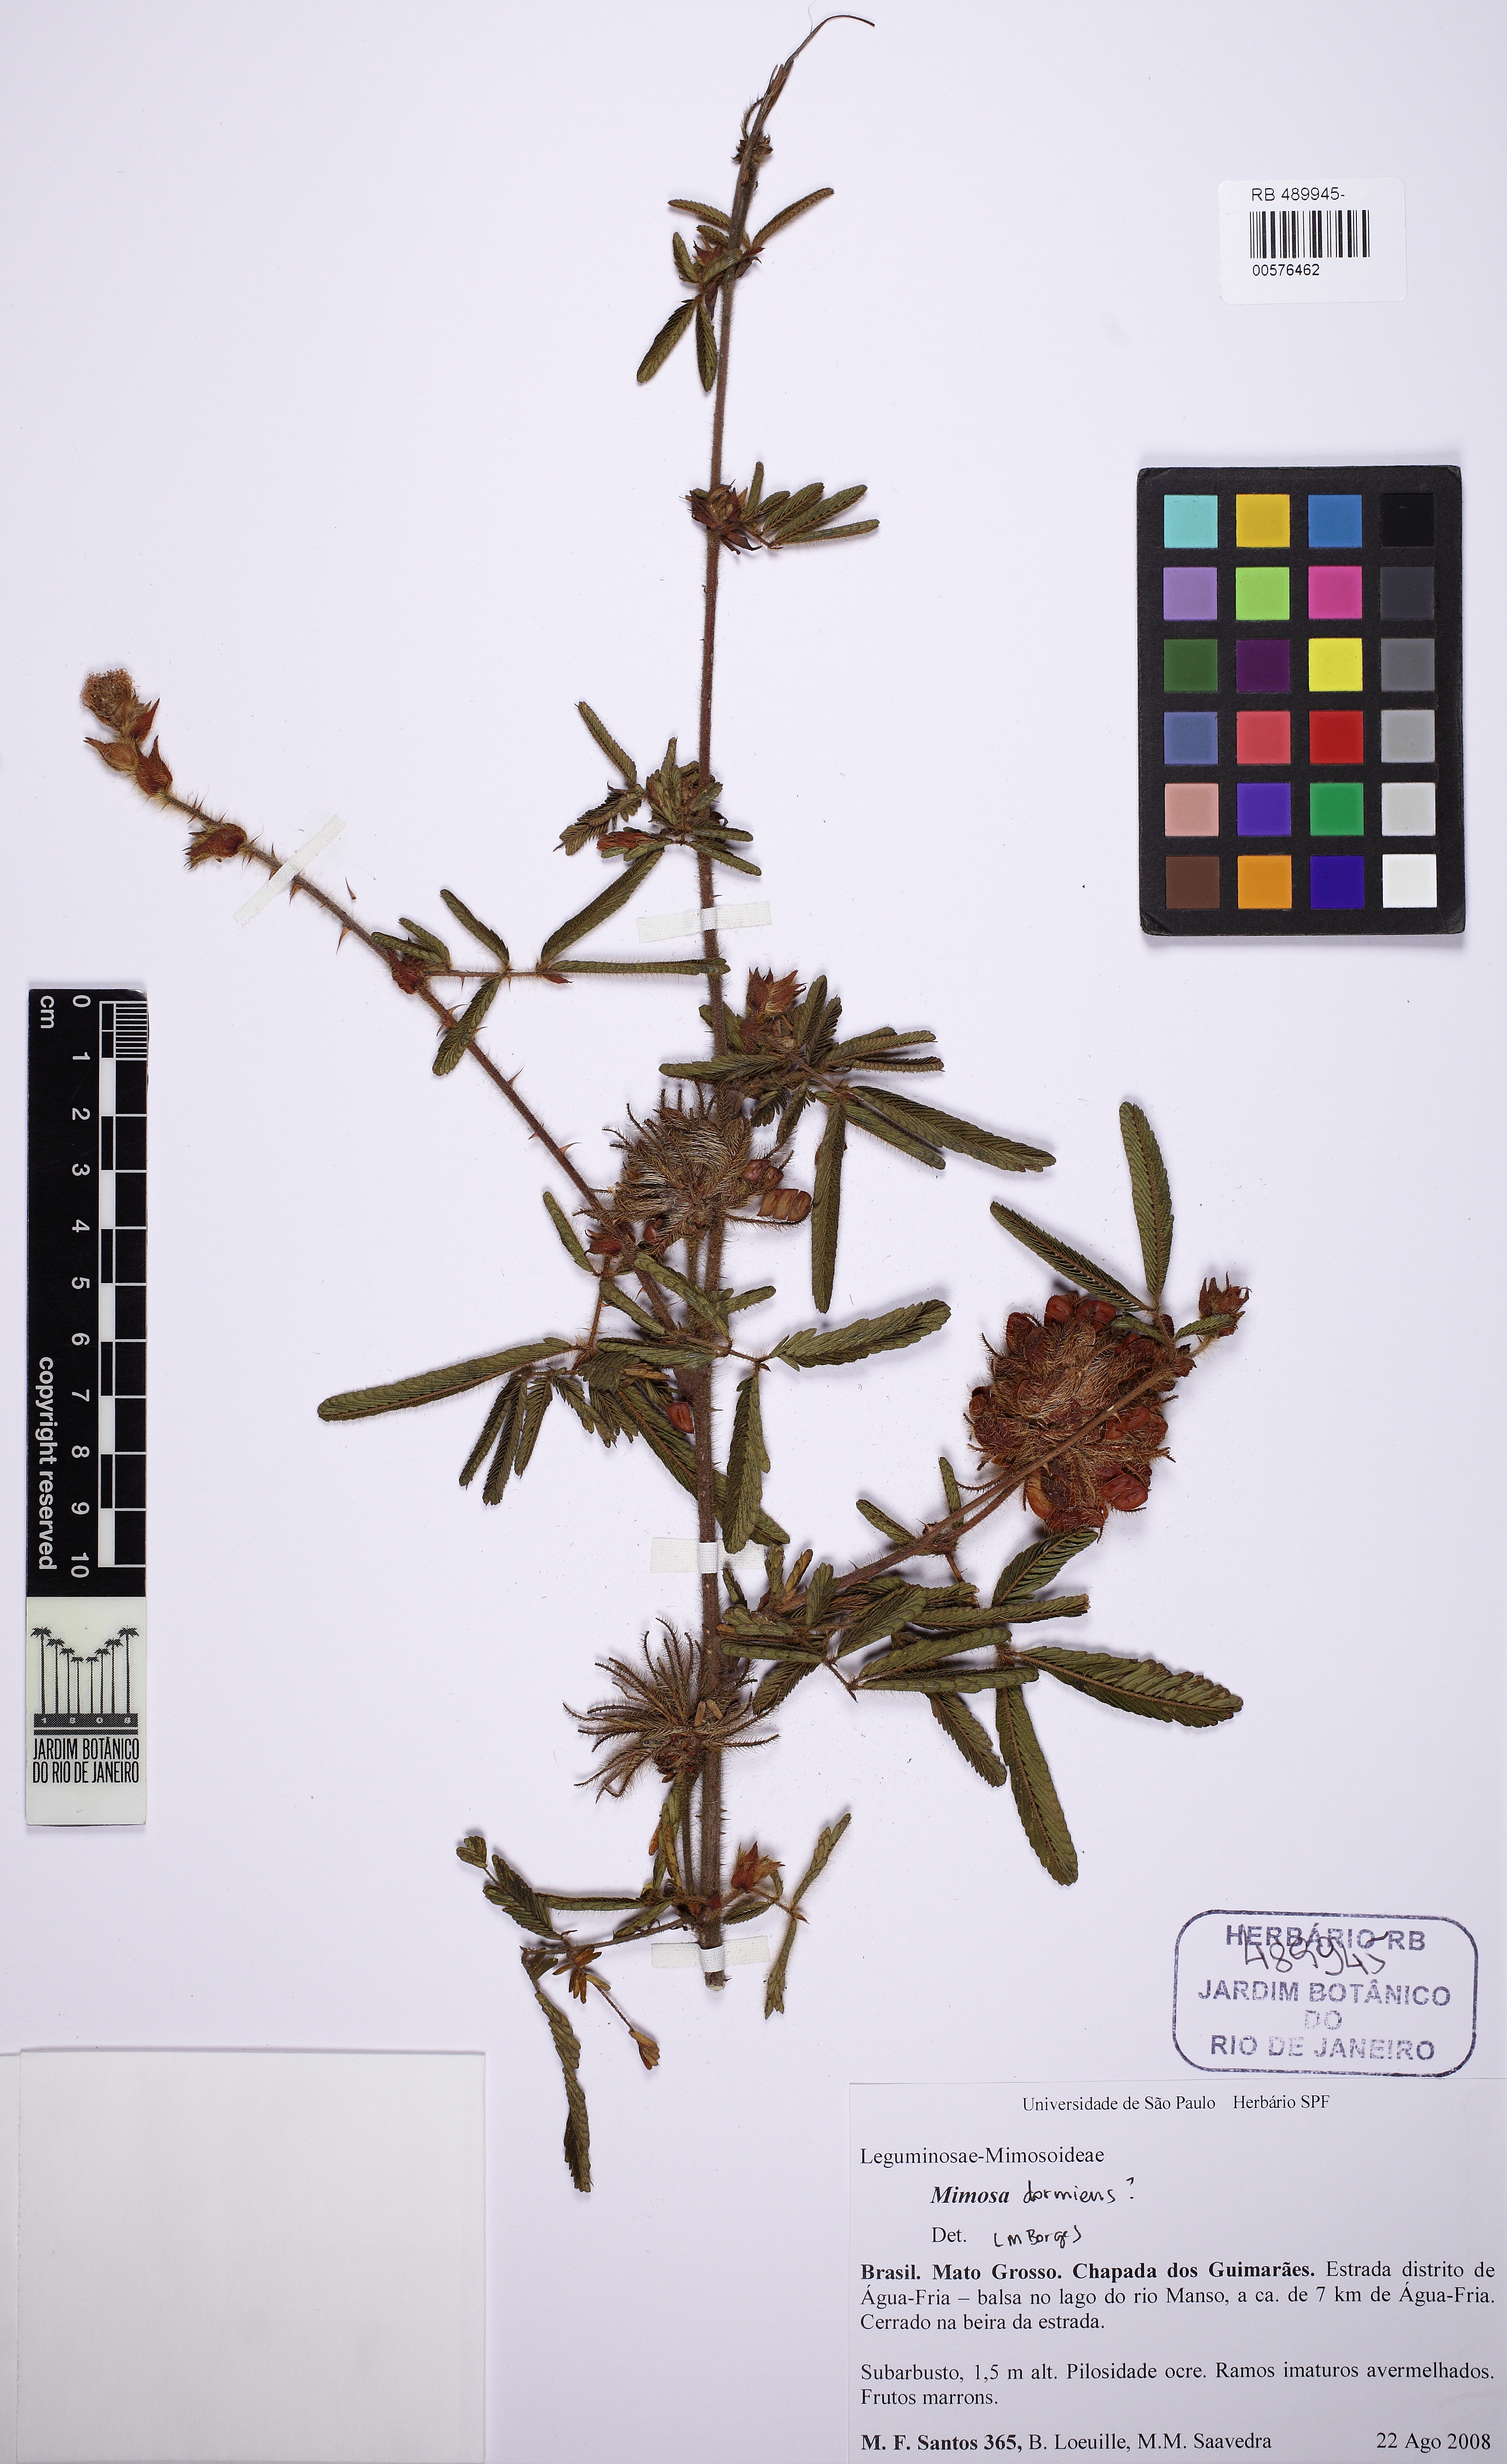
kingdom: Plantae
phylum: Tracheophyta
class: Magnoliopsida
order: Fabales
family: Fabaceae
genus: Mimosa
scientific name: Mimosa dormiens
